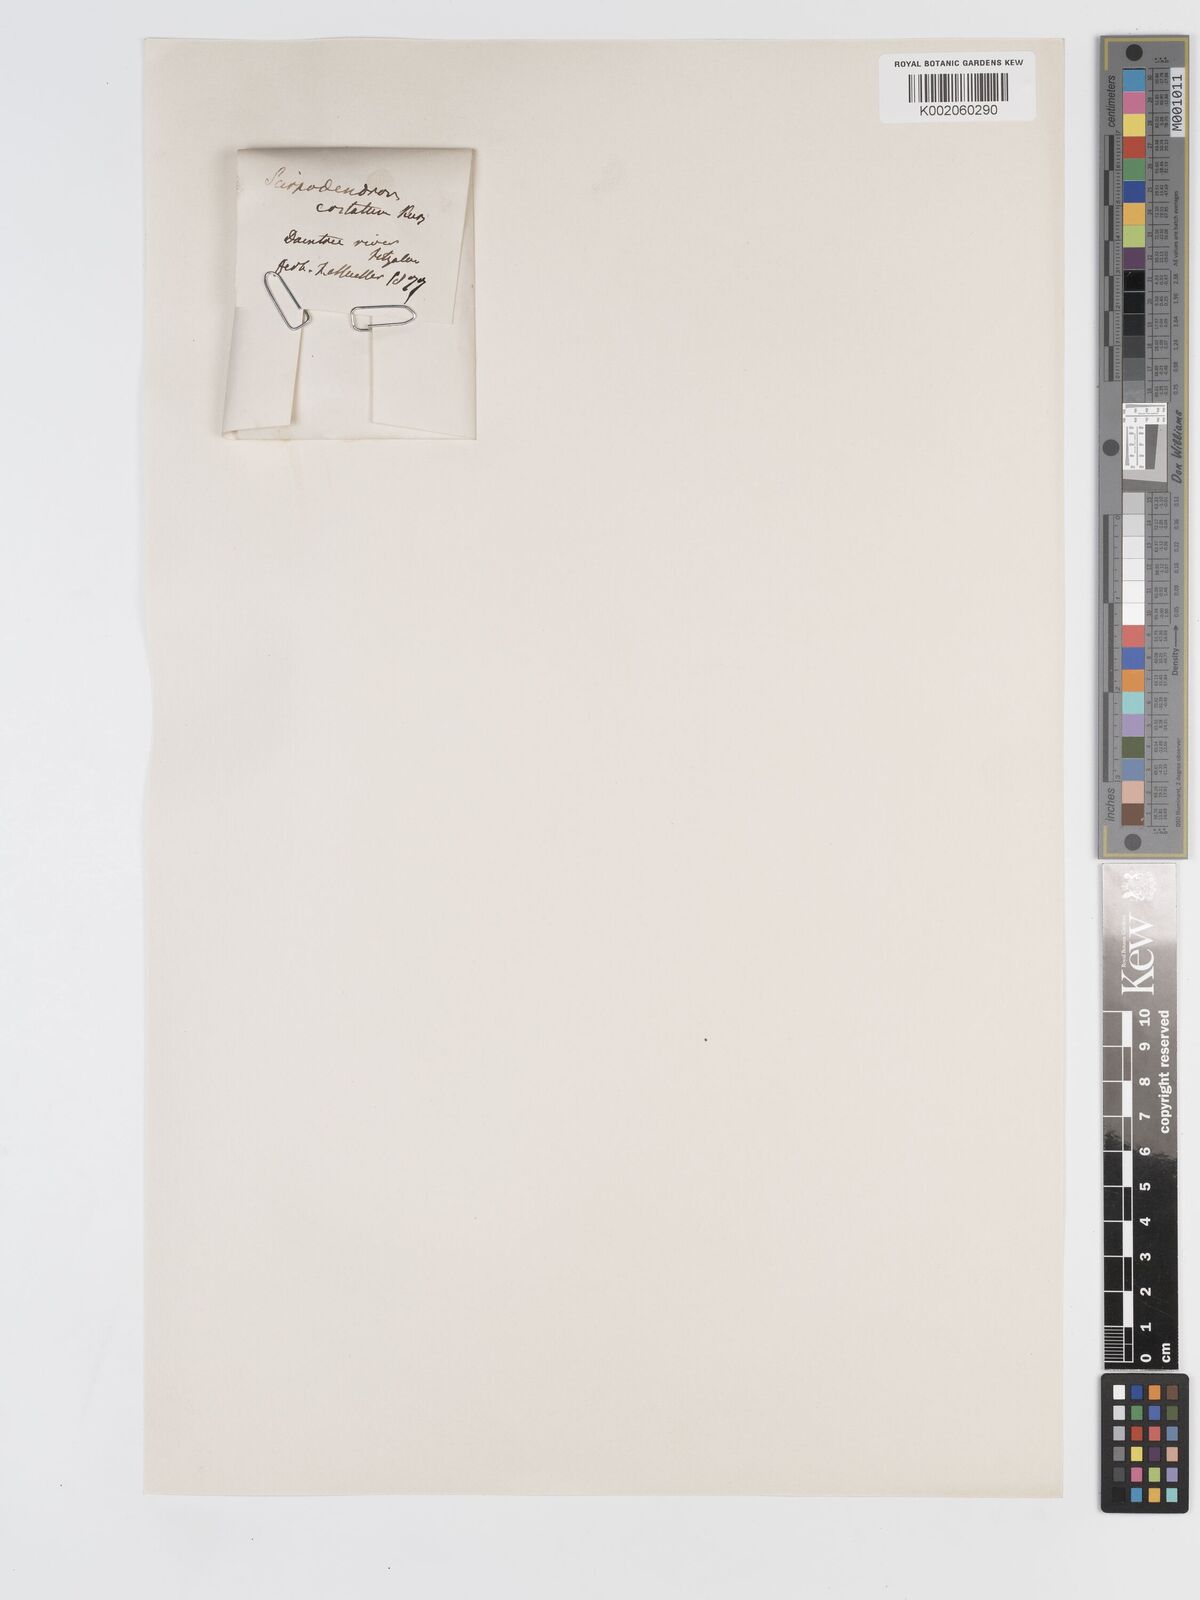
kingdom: Plantae
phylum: Tracheophyta
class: Liliopsida
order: Poales
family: Cyperaceae
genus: Scirpodendron
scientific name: Scirpodendron ghaeri
